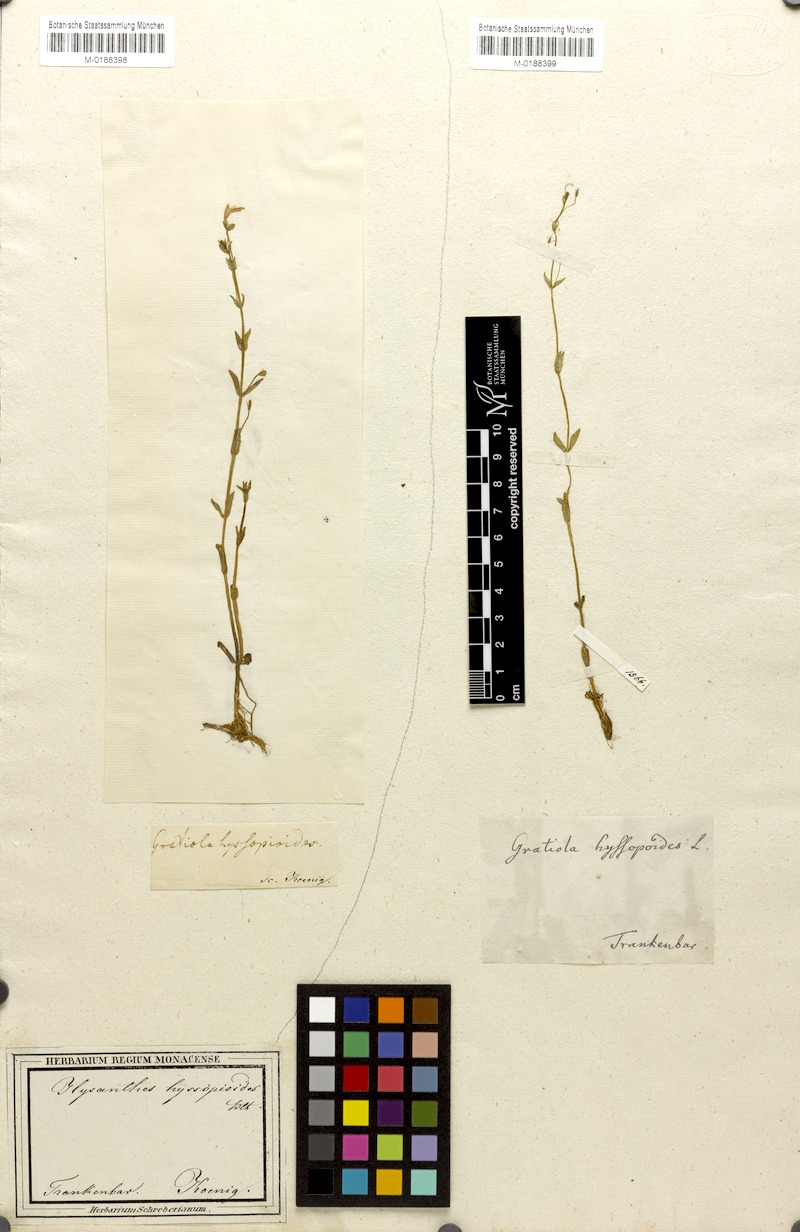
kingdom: Plantae
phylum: Tracheophyta
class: Magnoliopsida
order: Lamiales
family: Linderniaceae
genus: Lindernia
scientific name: Lindernia hyssopoides
